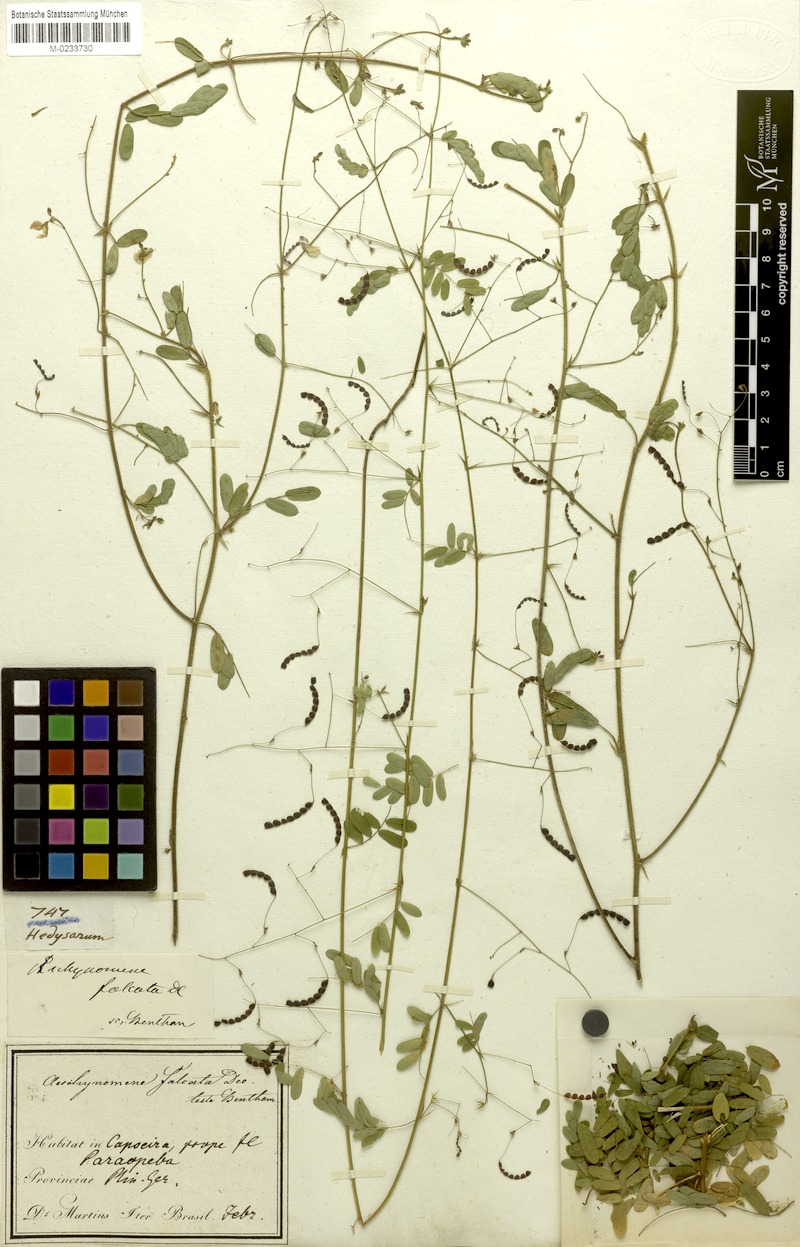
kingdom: Plantae
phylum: Tracheophyta
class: Magnoliopsida
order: Fabales
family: Fabaceae
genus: Ctenodon
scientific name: Ctenodon falcatus
